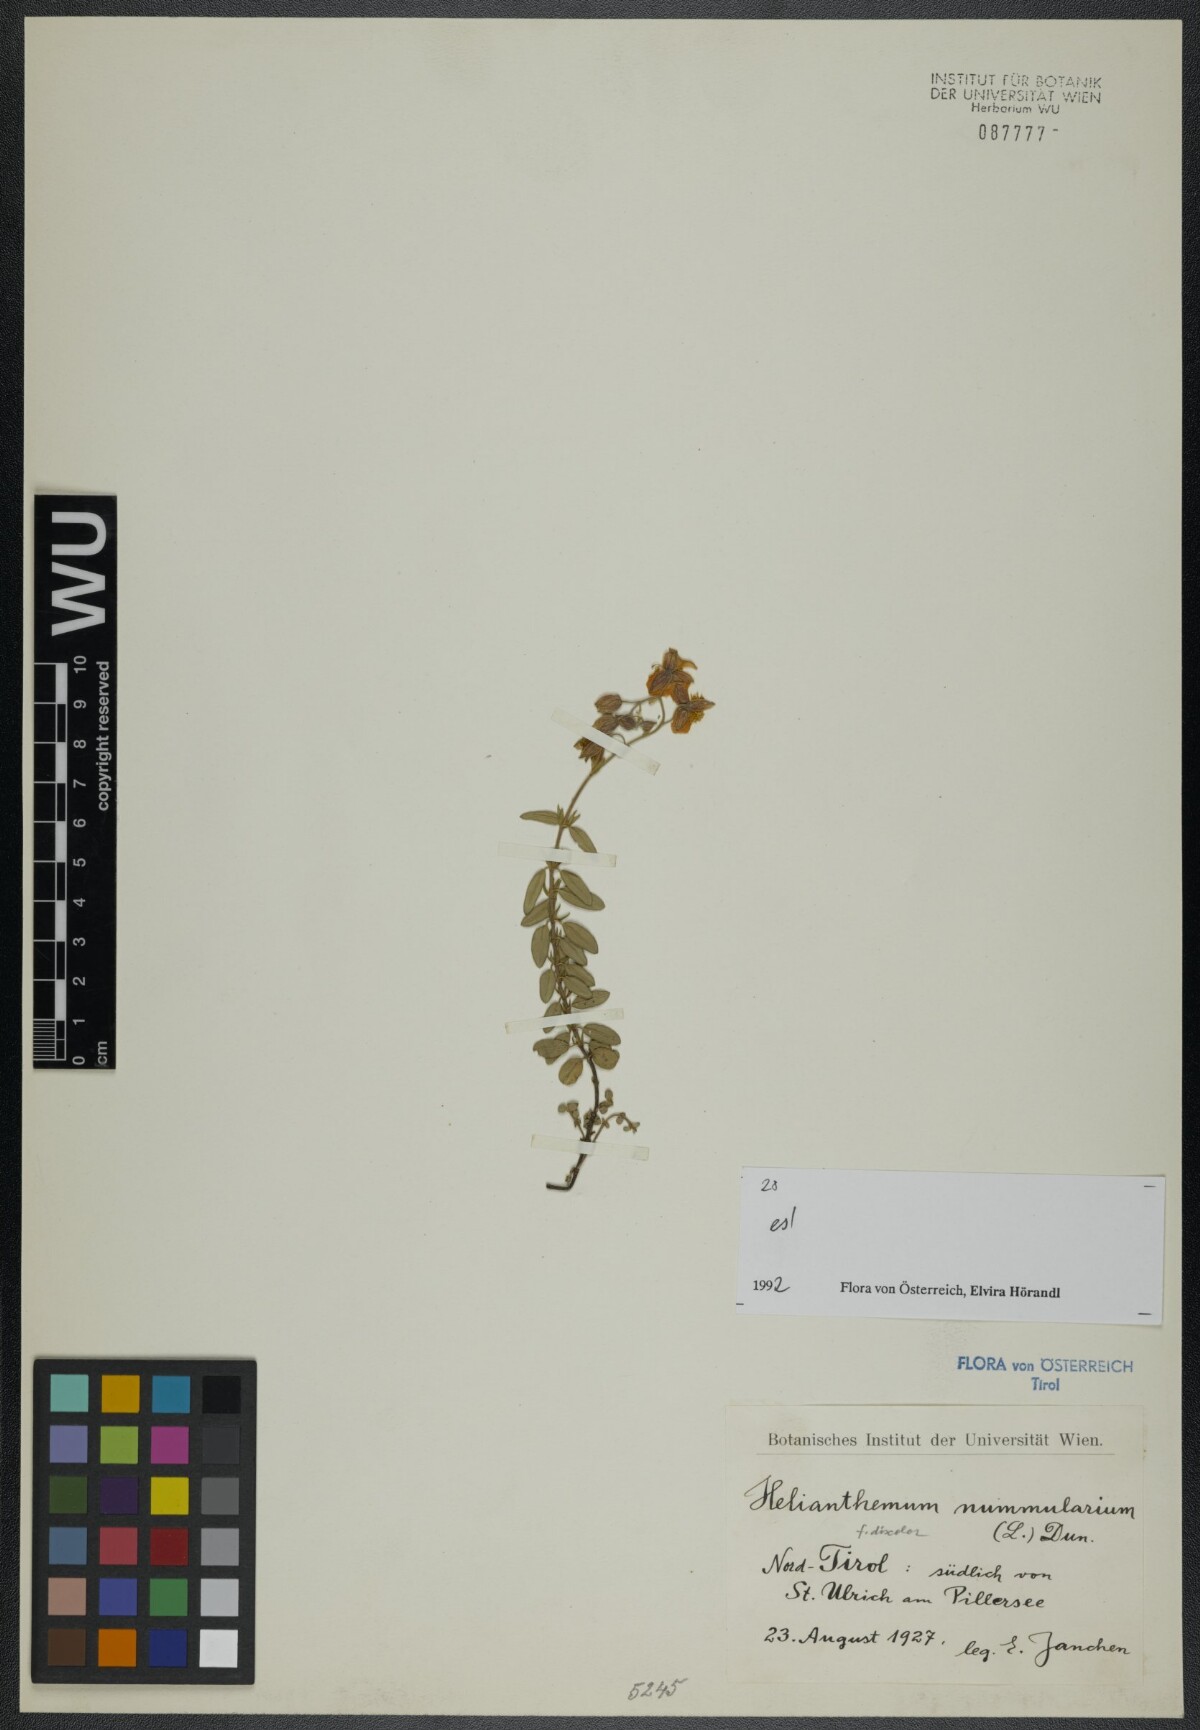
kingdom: Plantae
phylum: Tracheophyta
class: Magnoliopsida
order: Malvales
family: Cistaceae
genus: Helianthemum
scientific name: Helianthemum nummularium
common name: Common rock-rose
